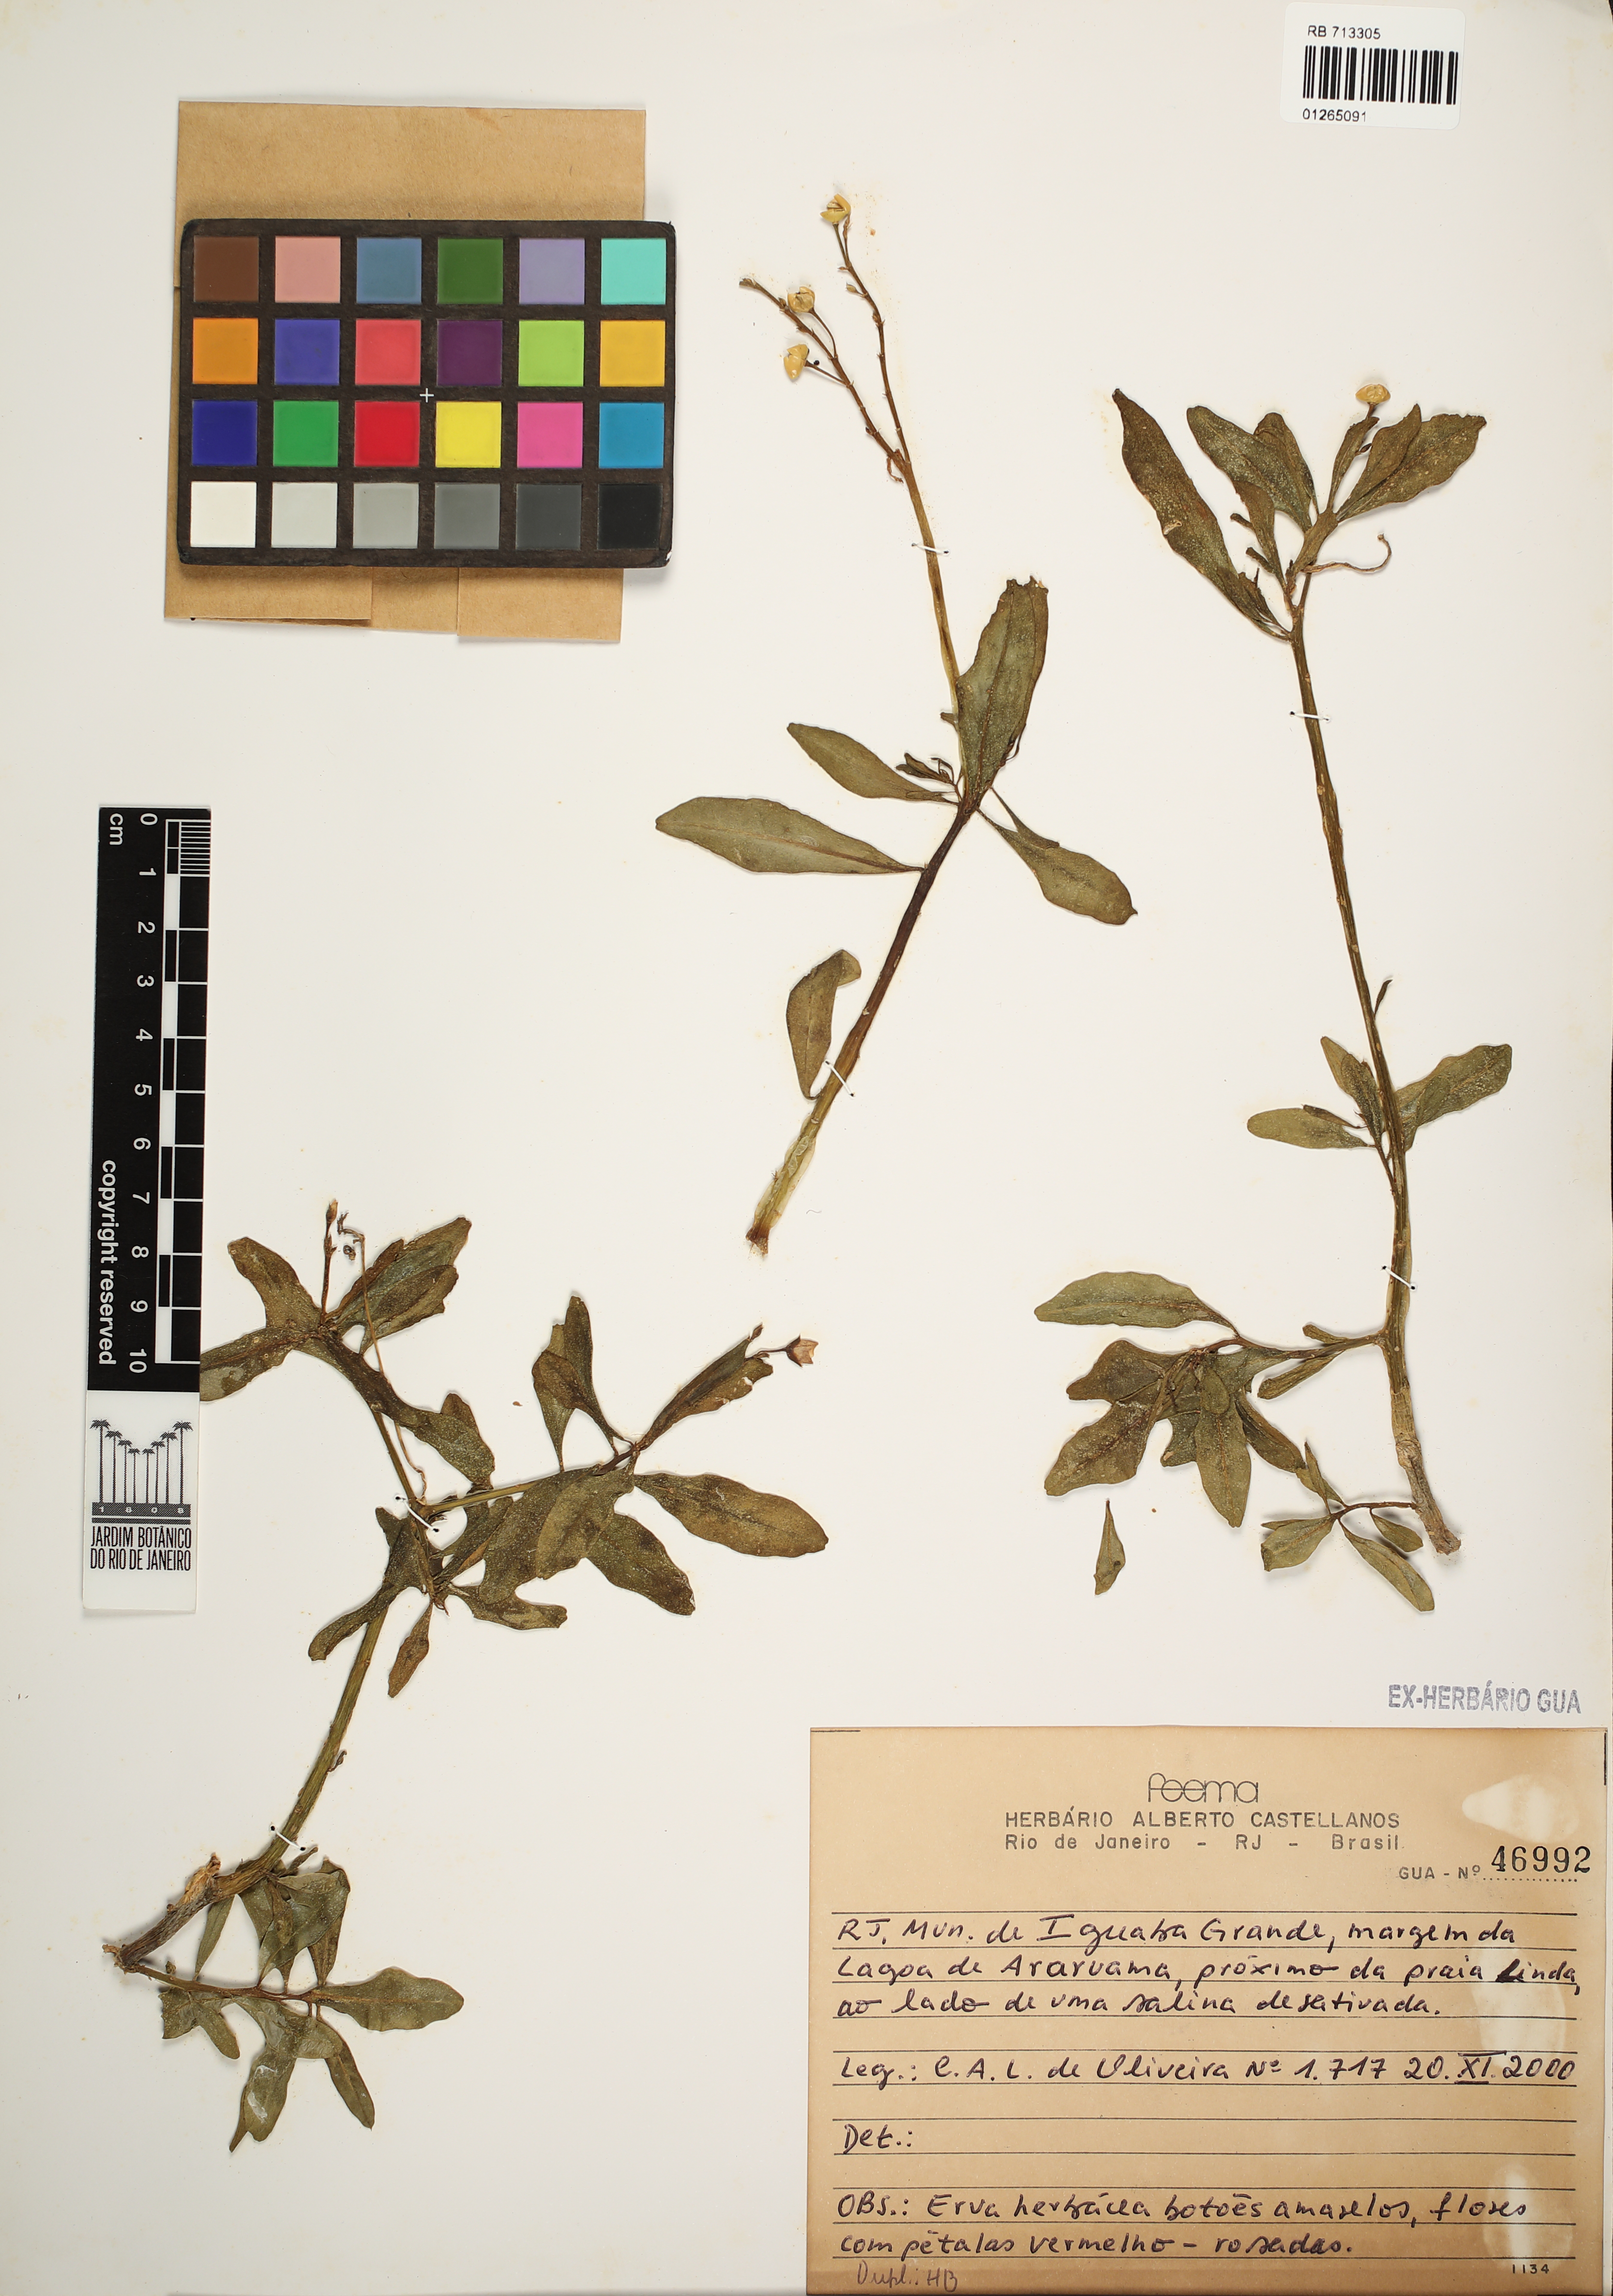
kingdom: Plantae
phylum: Tracheophyta
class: Magnoliopsida
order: Saxifragales
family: Crassulaceae
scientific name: Crassulaceae
